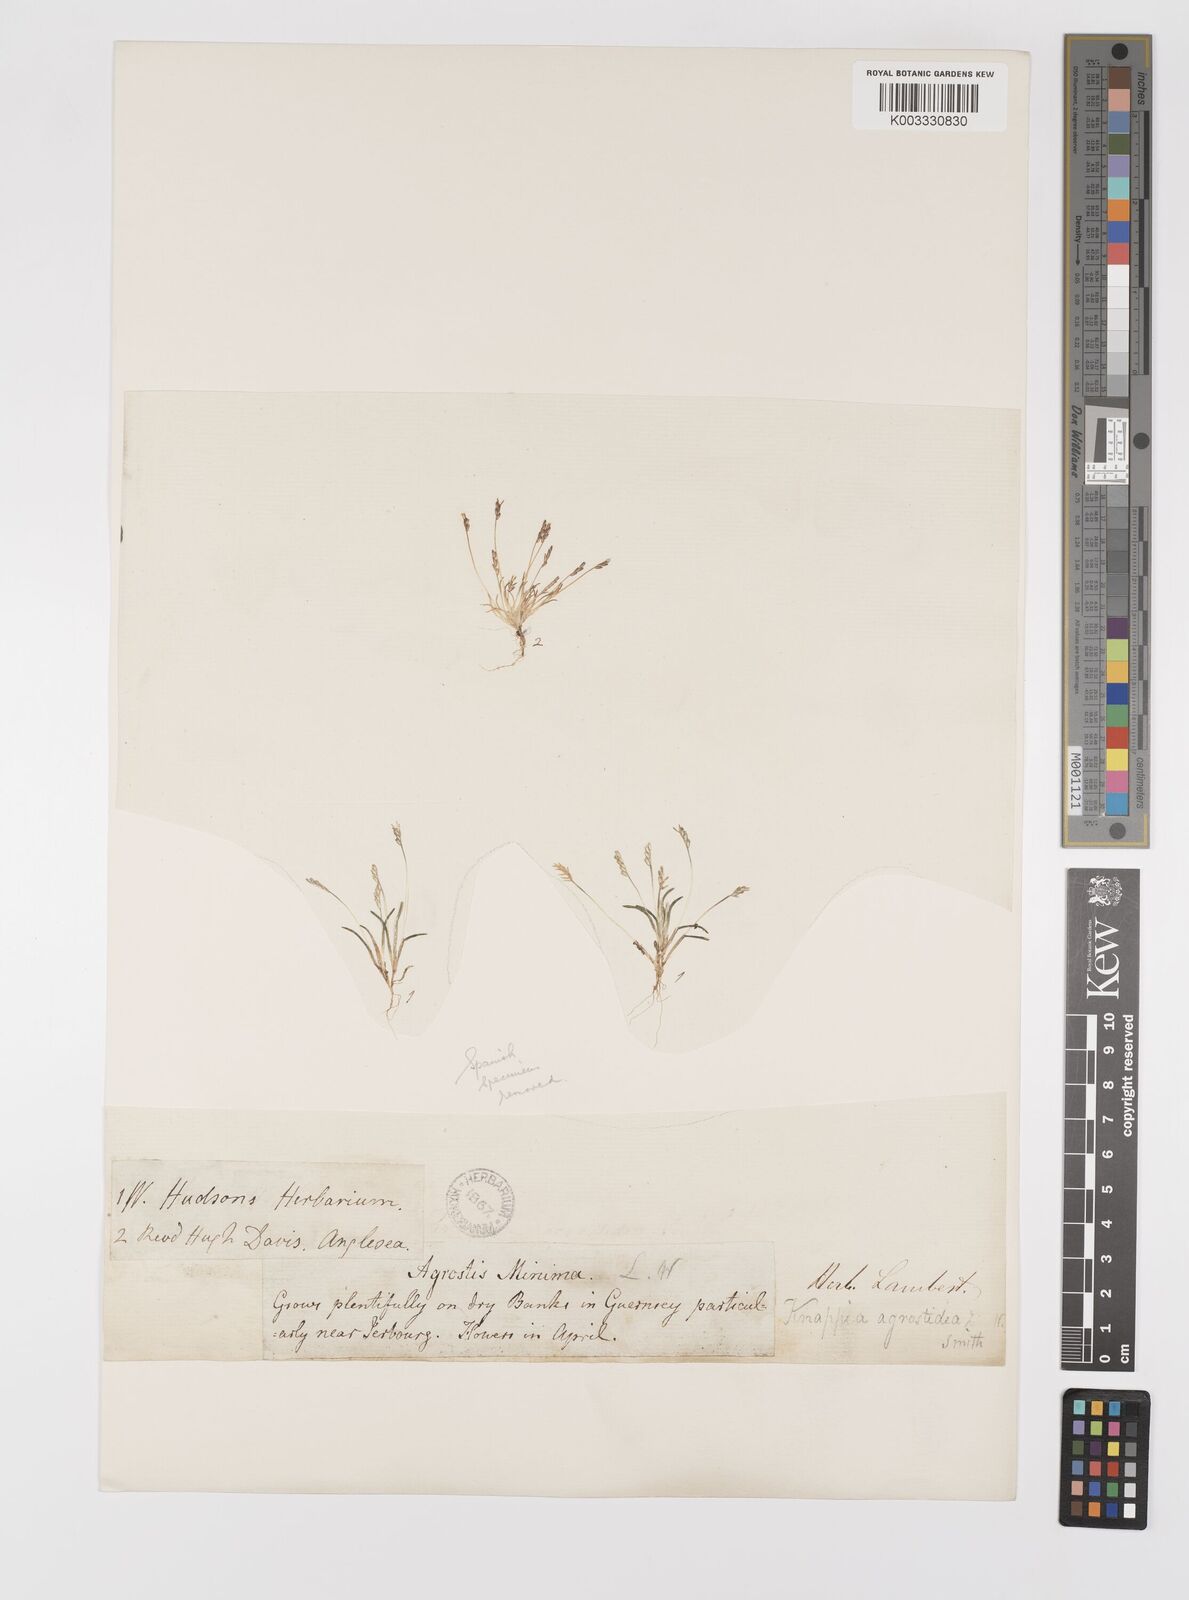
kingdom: Plantae
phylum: Tracheophyta
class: Liliopsida
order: Poales
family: Poaceae
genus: Mibora
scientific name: Mibora minima
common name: Early sand-grass
